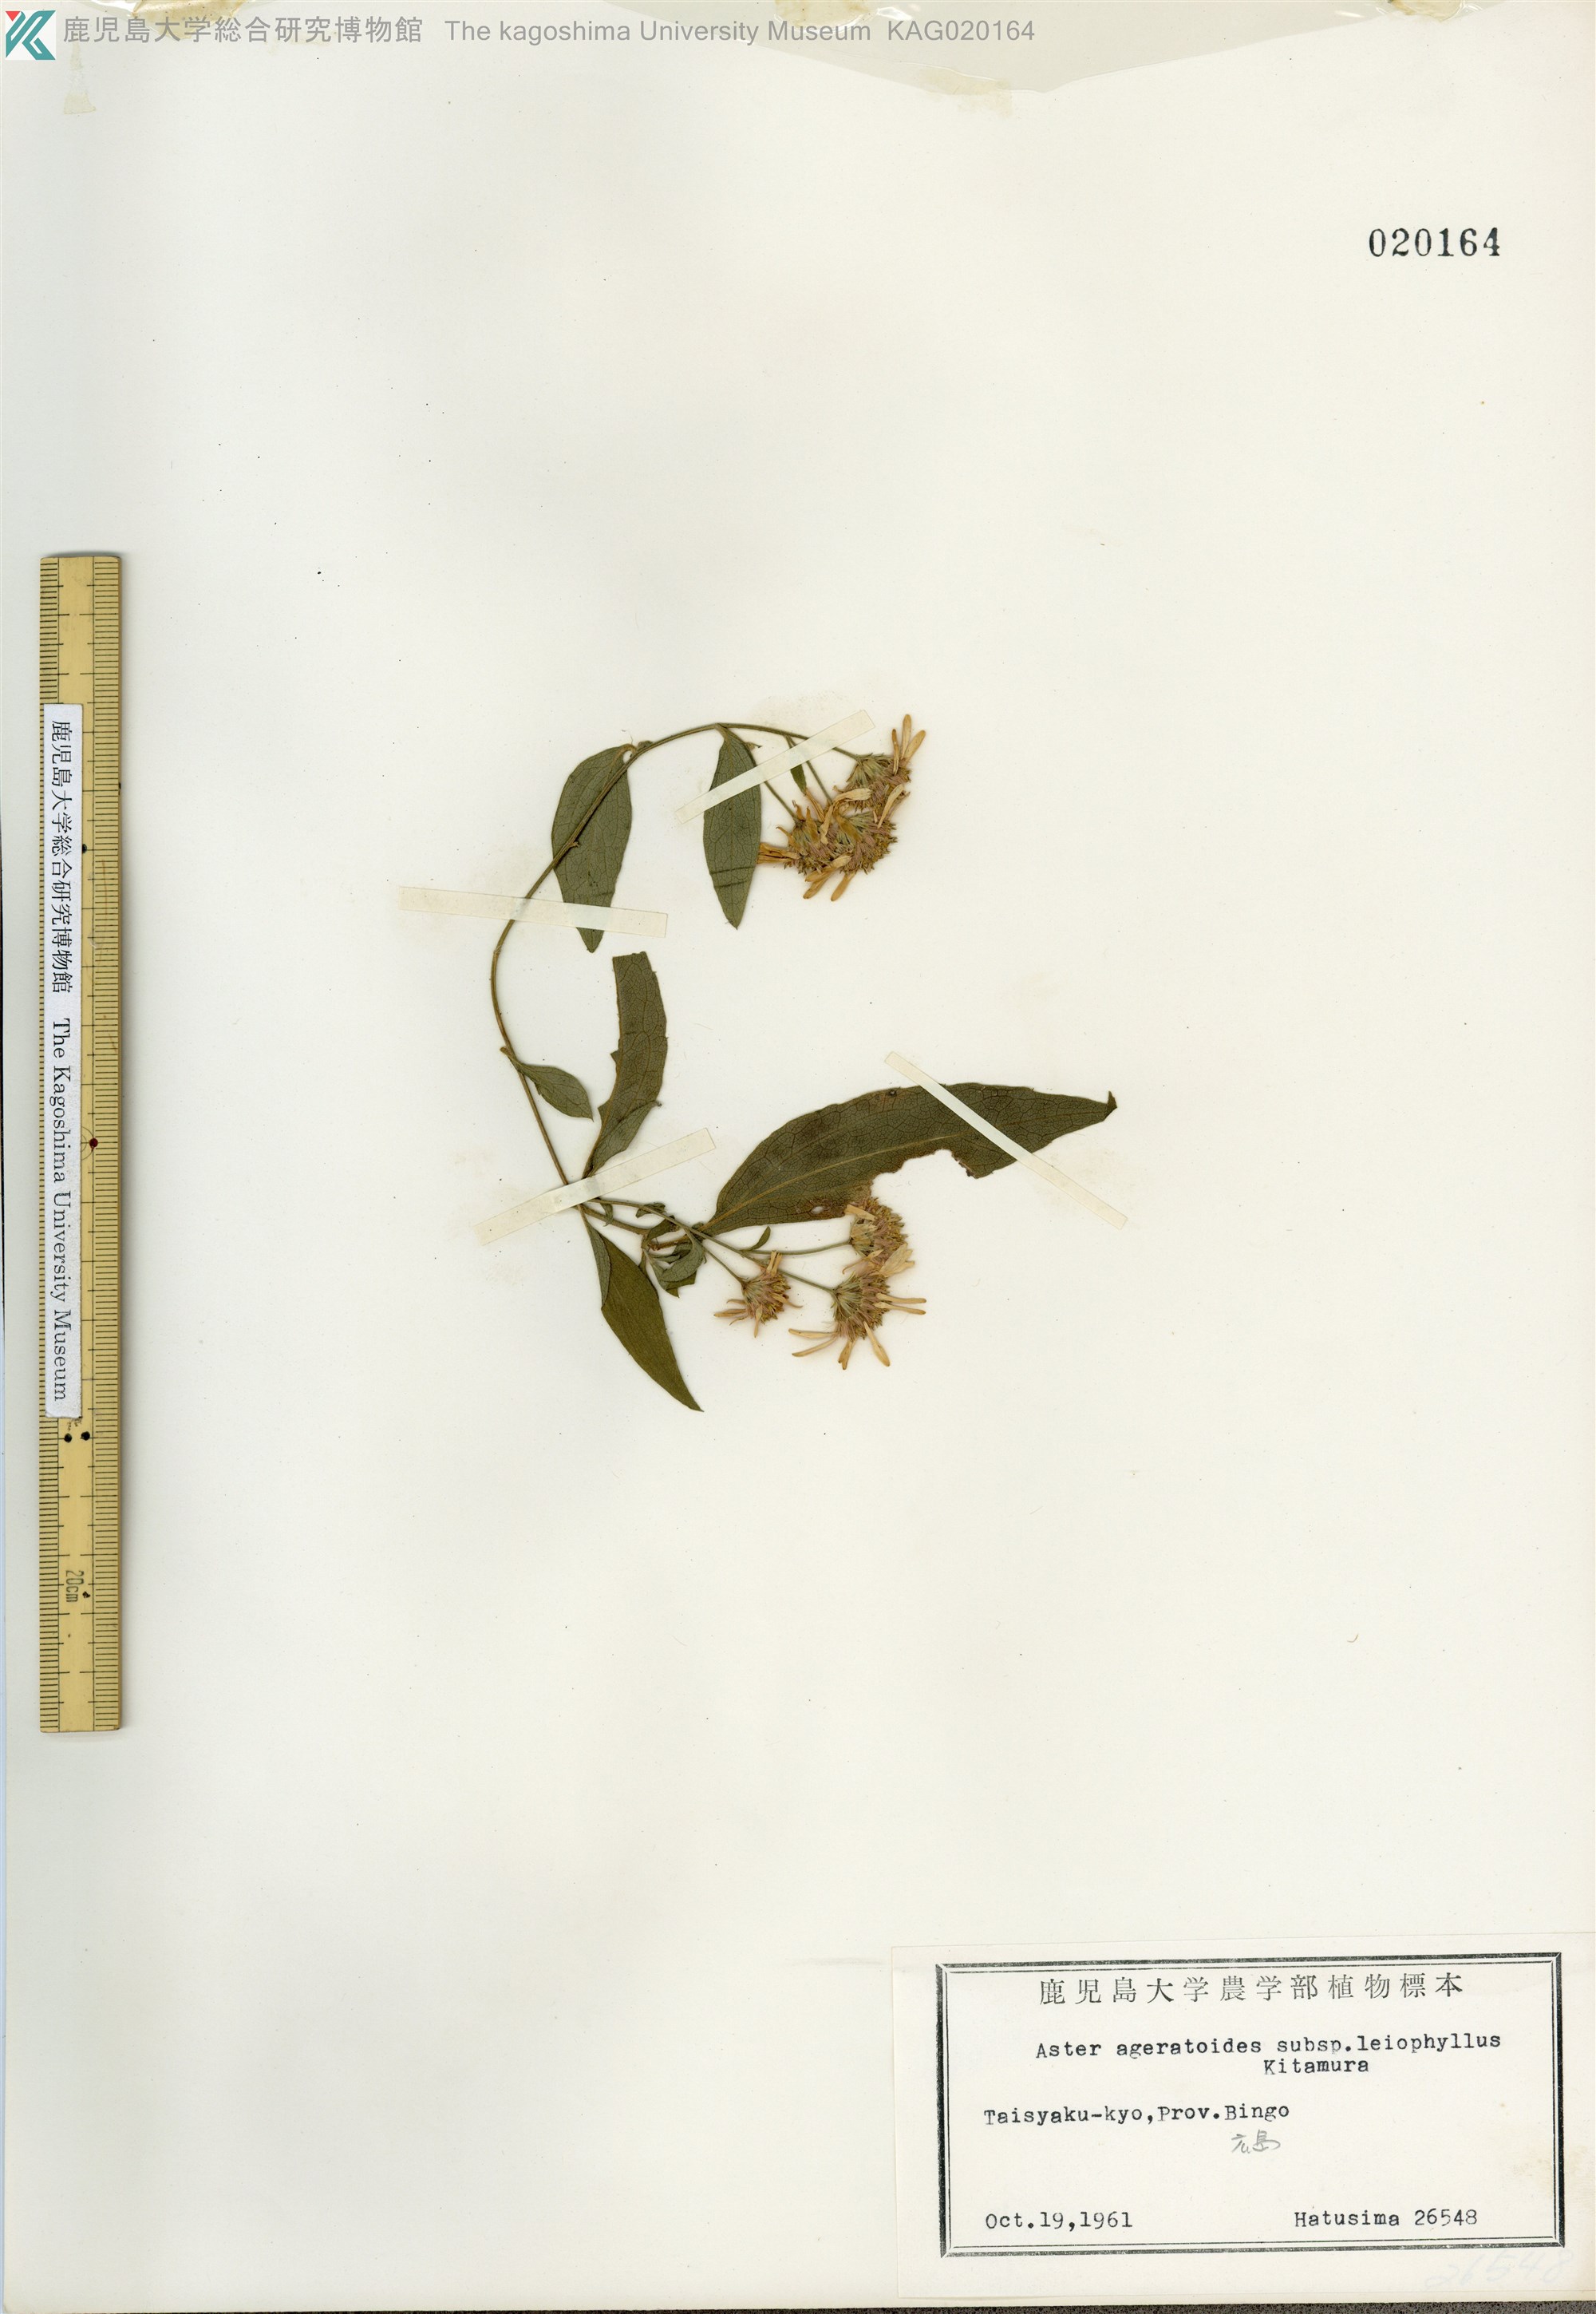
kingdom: Plantae
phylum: Tracheophyta
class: Magnoliopsida
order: Asterales
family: Asteraceae
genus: Aster
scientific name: Aster ageratoides
